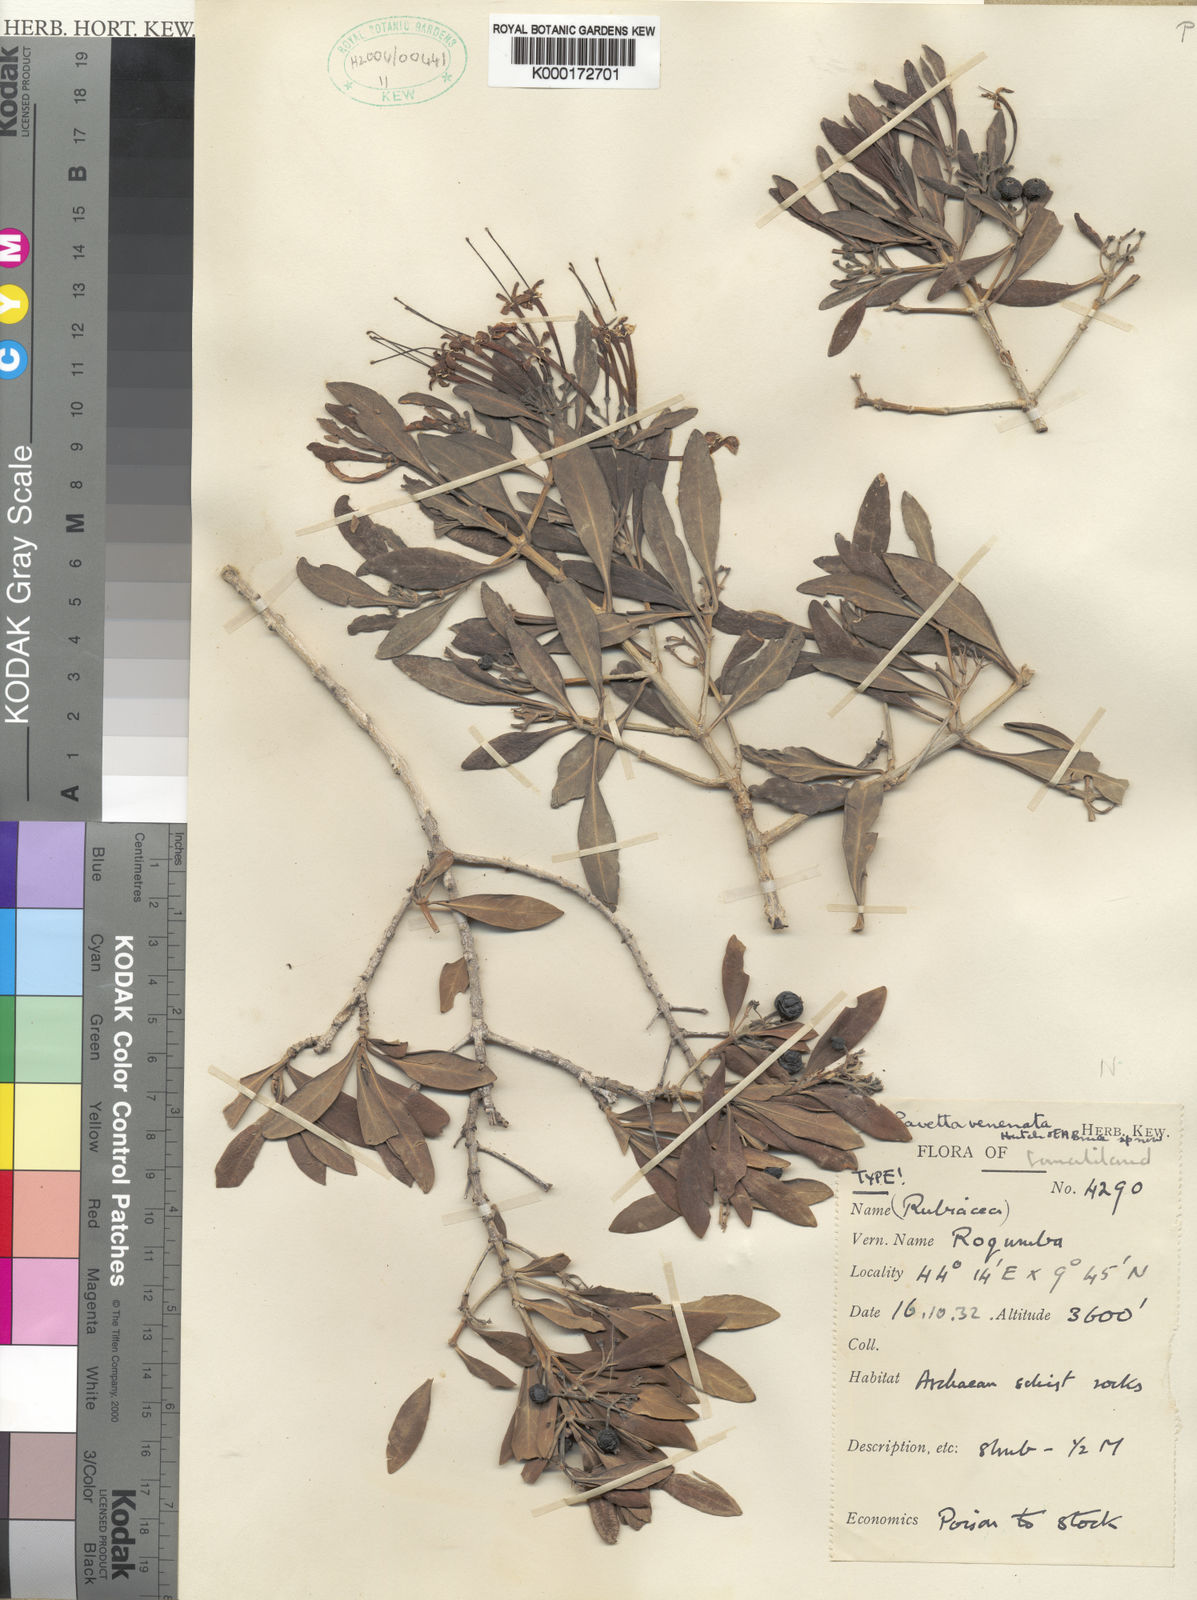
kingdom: Plantae
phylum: Tracheophyta
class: Magnoliopsida
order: Gentianales
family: Rubiaceae
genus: Pavetta
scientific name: Pavetta venenata
